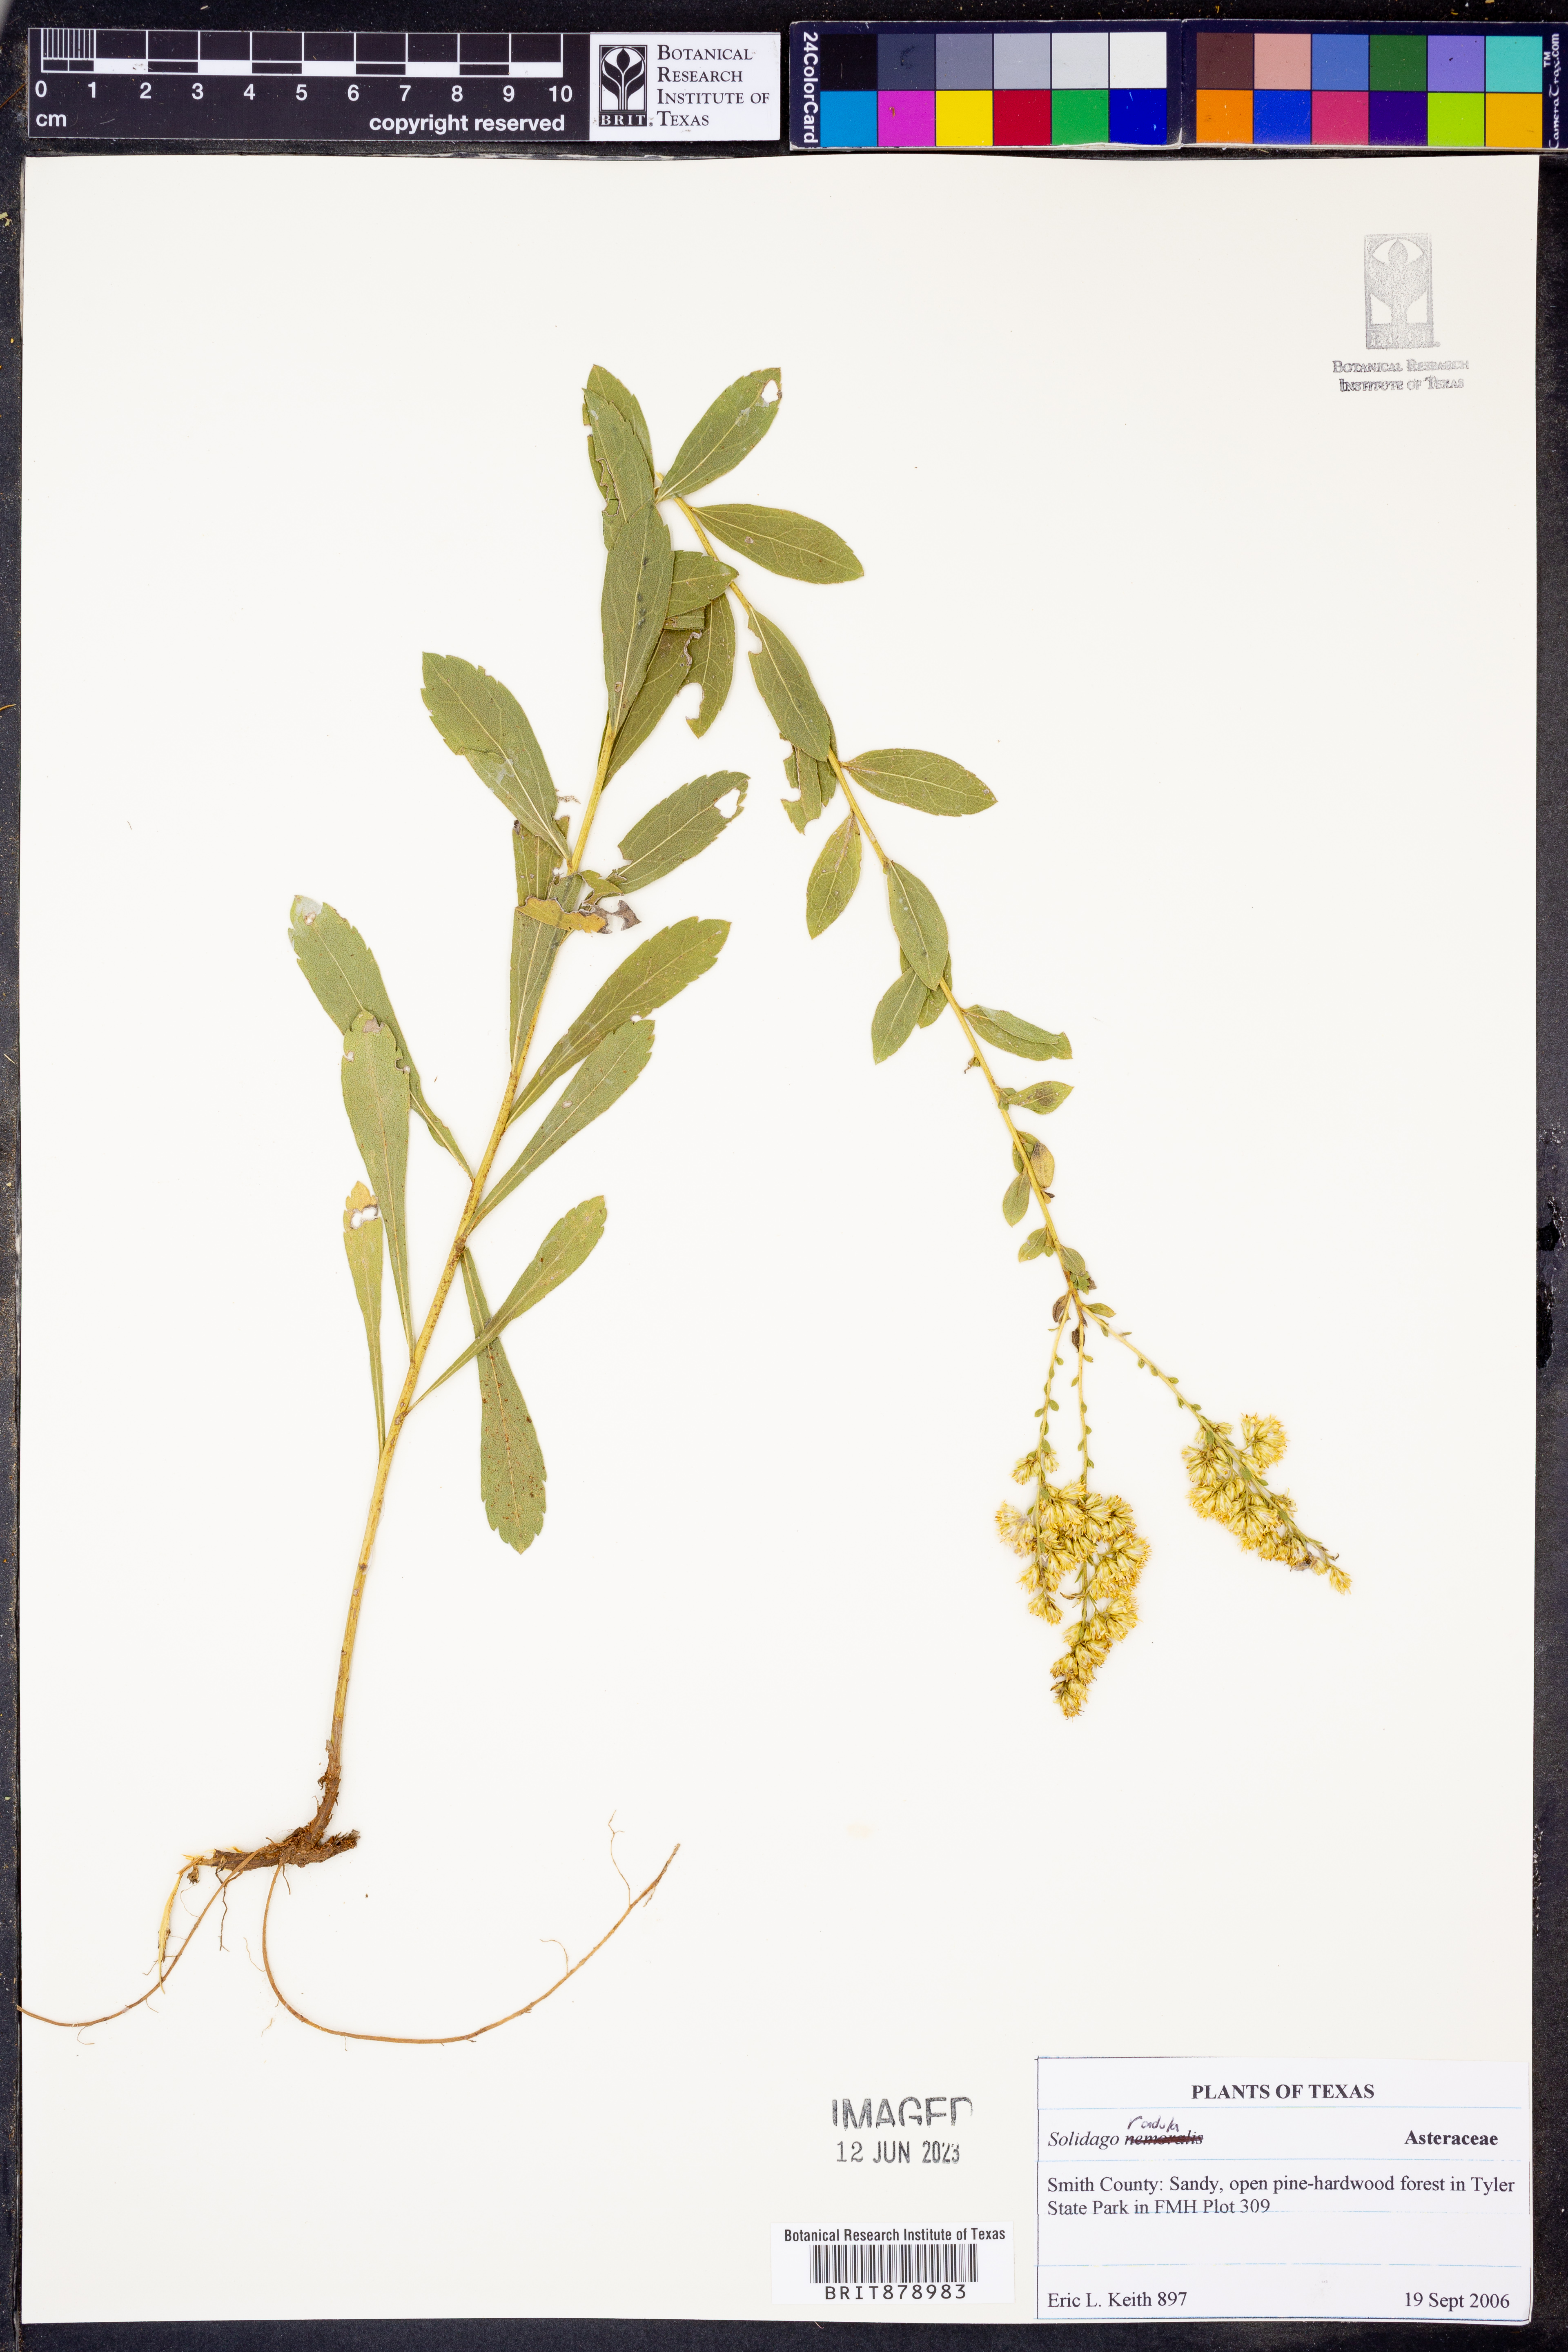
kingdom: Plantae
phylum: Tracheophyta
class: Magnoliopsida
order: Asterales
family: Asteraceae
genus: Solidago
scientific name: Solidago radula
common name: Western rough goldenrod
